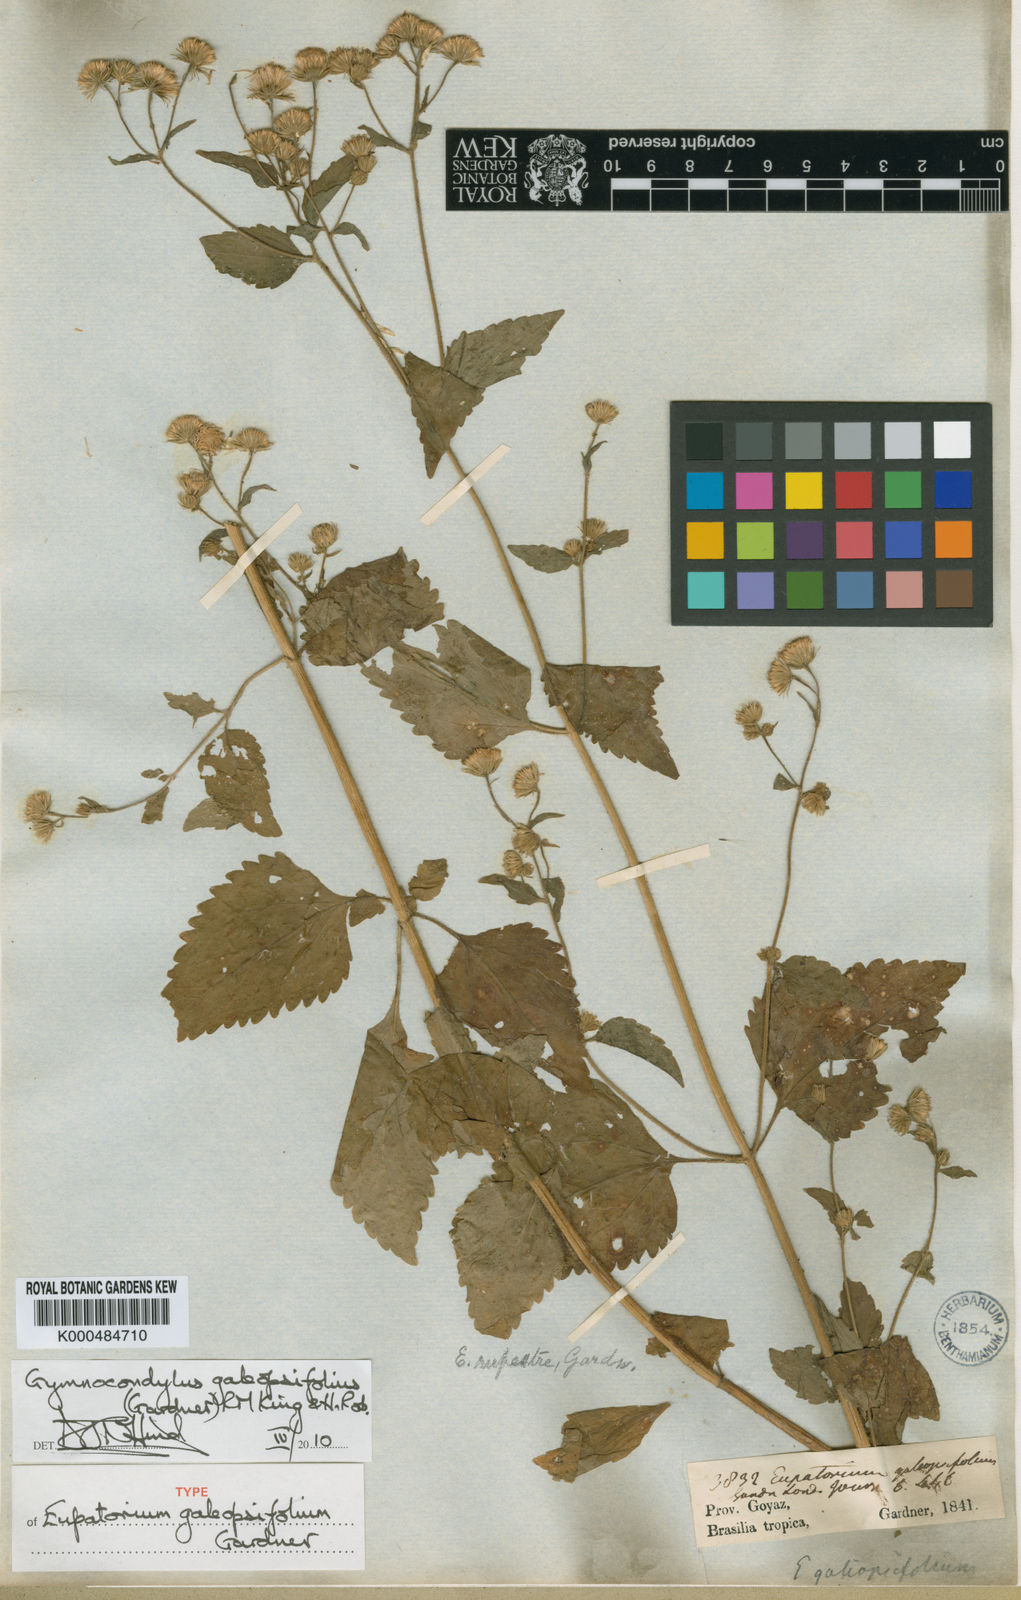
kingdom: Plantae
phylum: Tracheophyta
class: Magnoliopsida
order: Asterales
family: Asteraceae
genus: Gymnocondylus
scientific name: Gymnocondylus galeopsifolius
